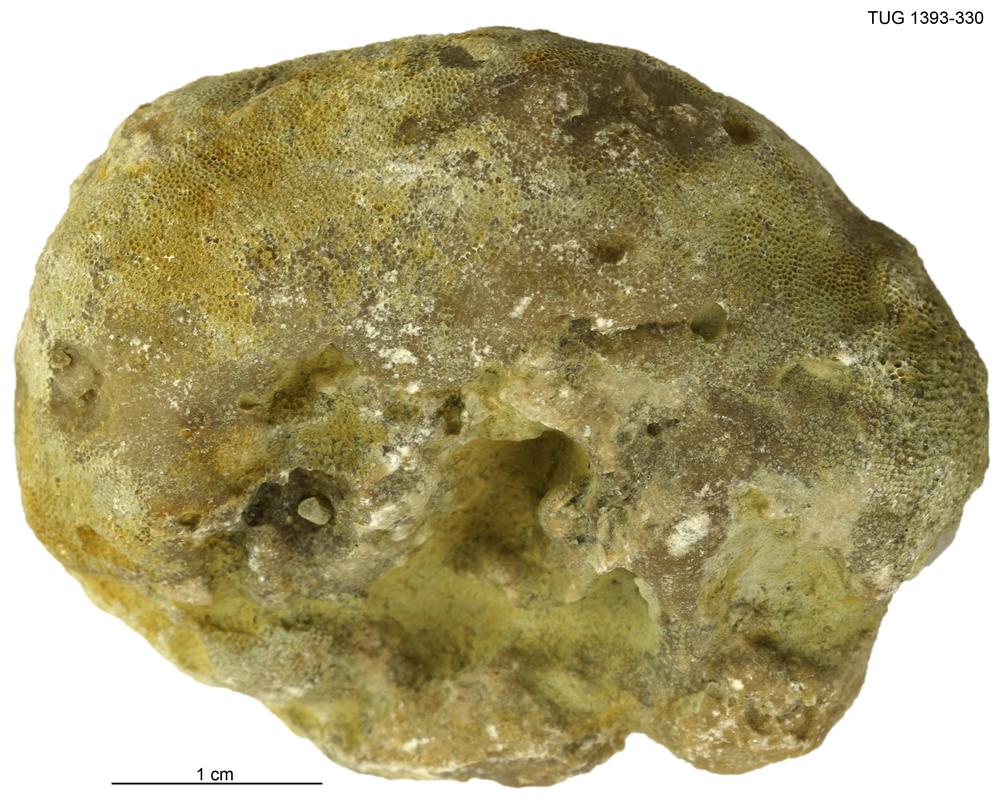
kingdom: Animalia
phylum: Bryozoa
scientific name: Bryozoa
